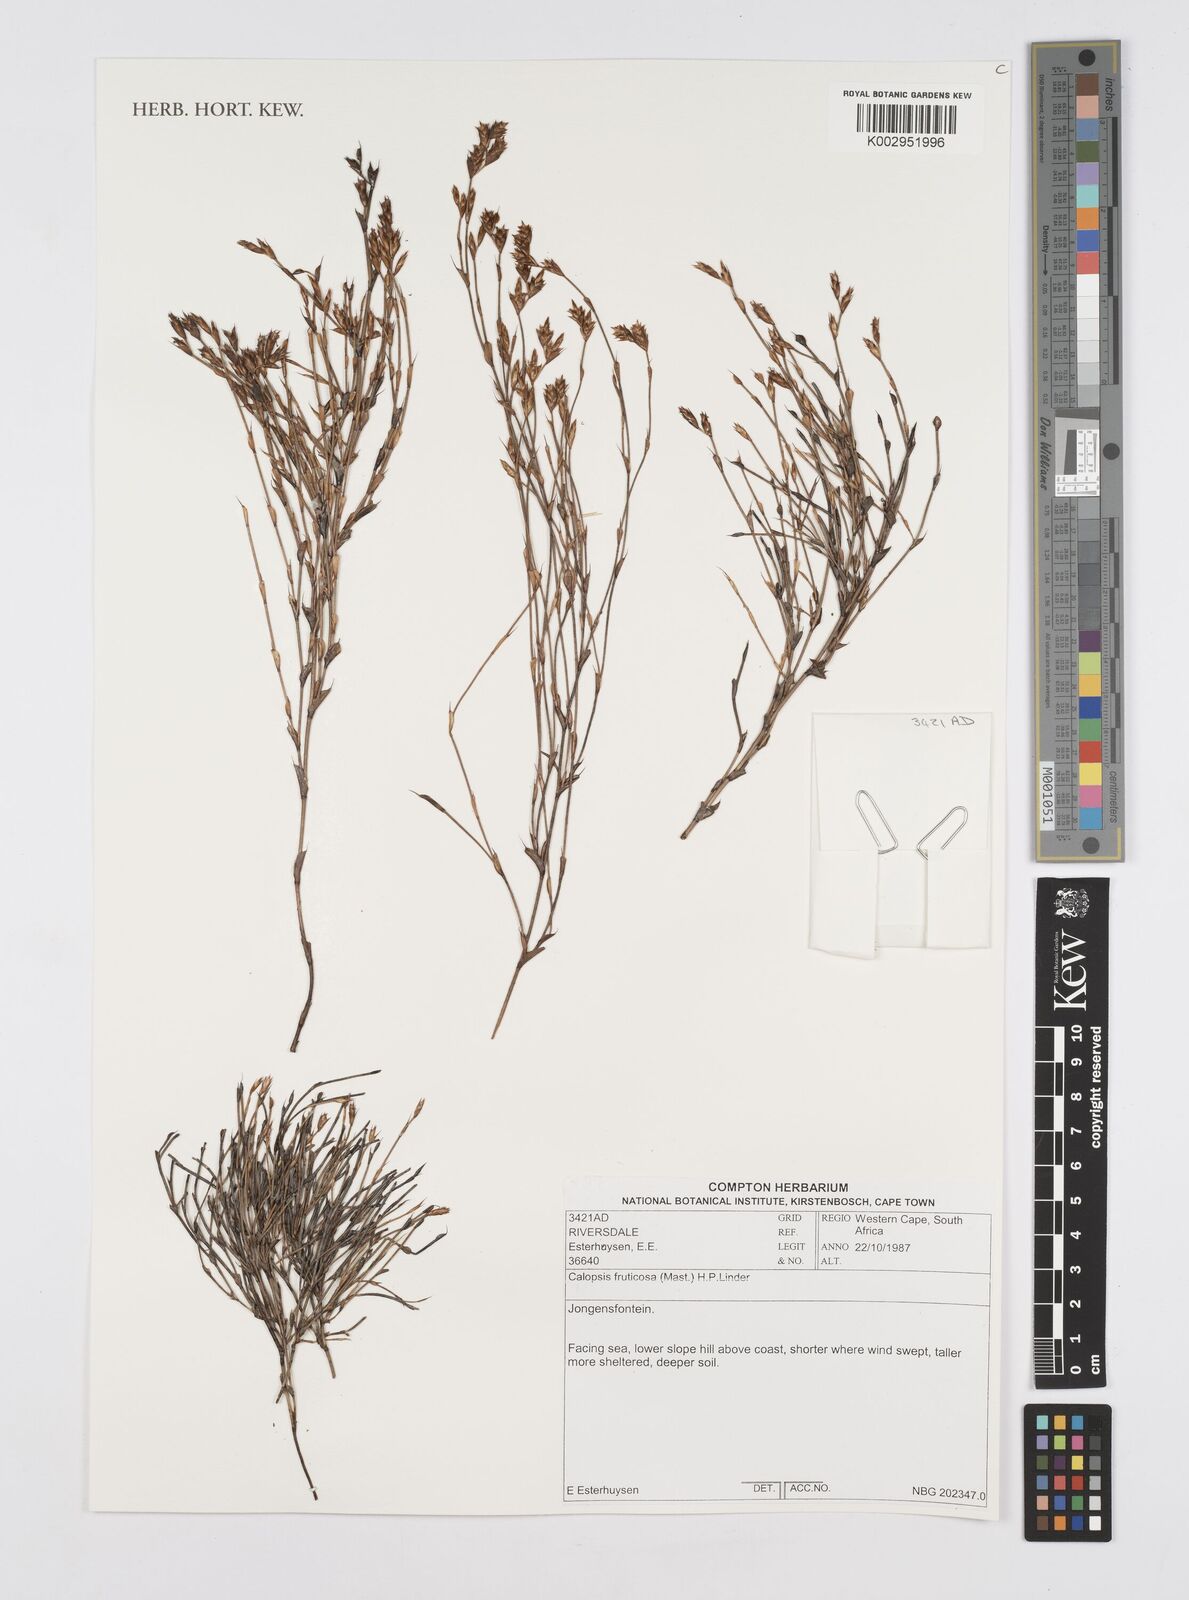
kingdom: Plantae
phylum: Tracheophyta
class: Liliopsida
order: Poales
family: Restionaceae
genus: Rhodocoma
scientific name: Rhodocoma fruticosa
